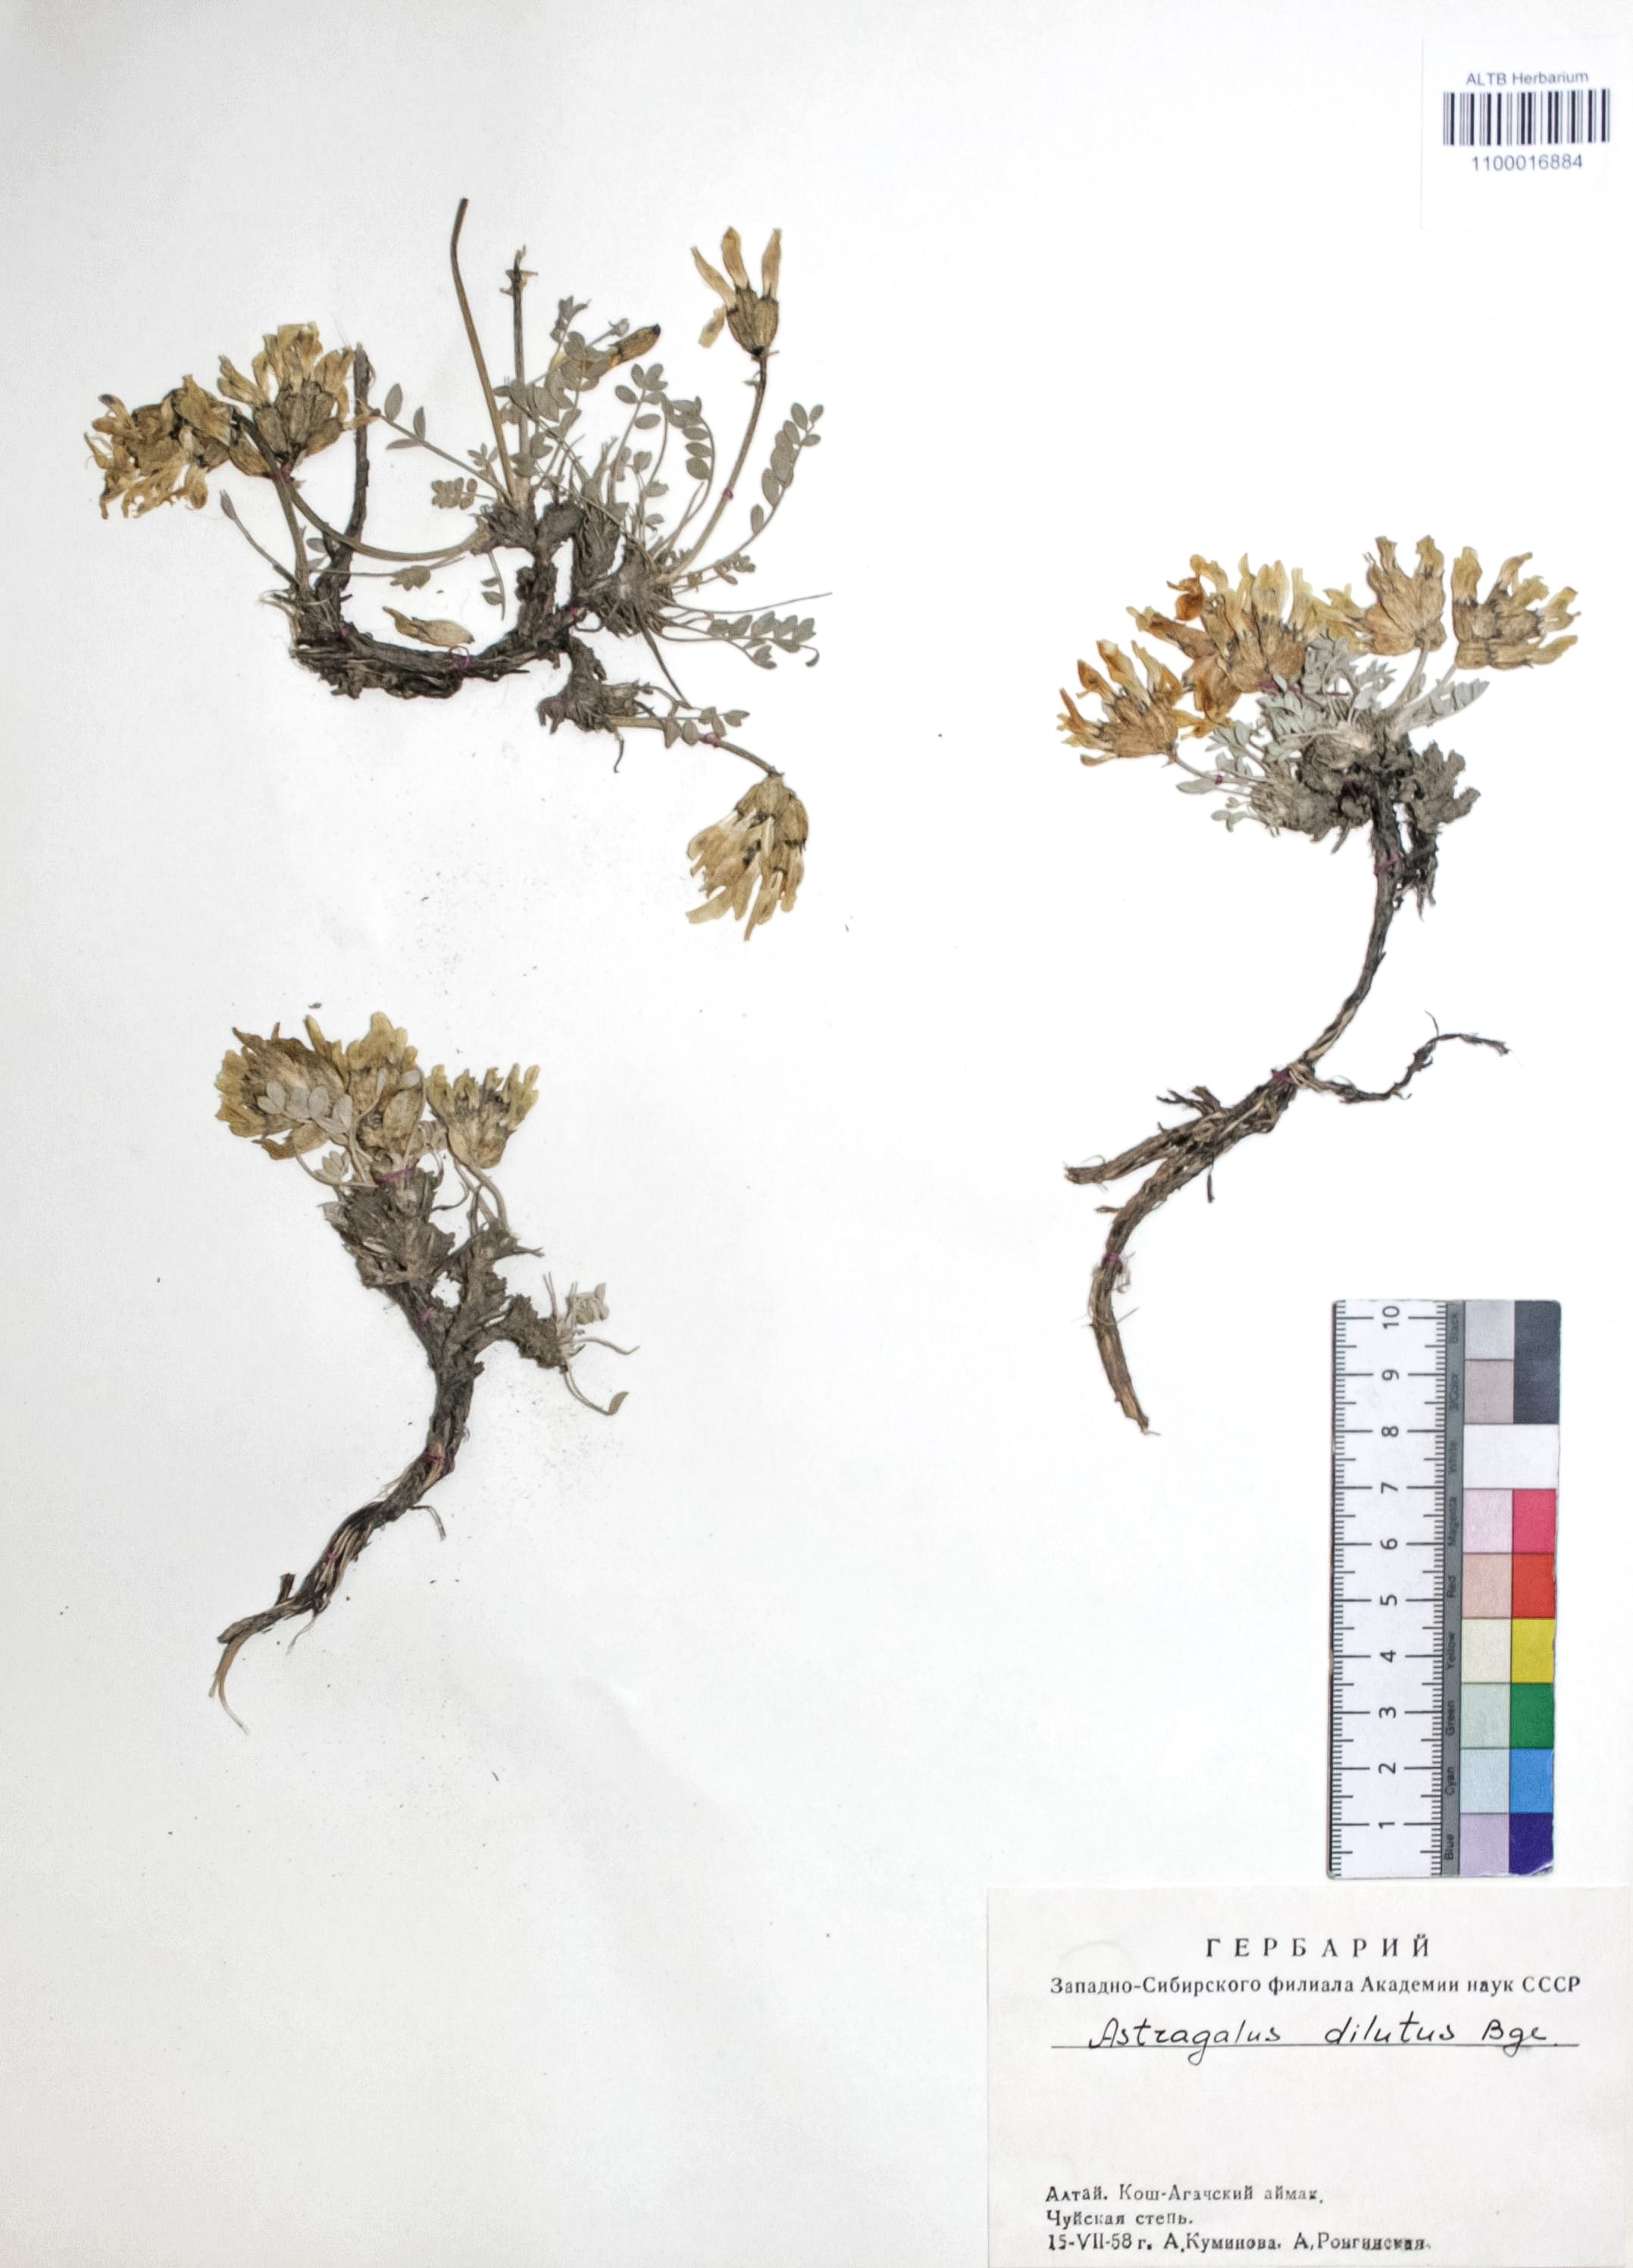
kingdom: Plantae
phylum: Tracheophyta
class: Magnoliopsida
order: Fabales
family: Fabaceae
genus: Astragalus
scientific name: Astragalus dilutus
